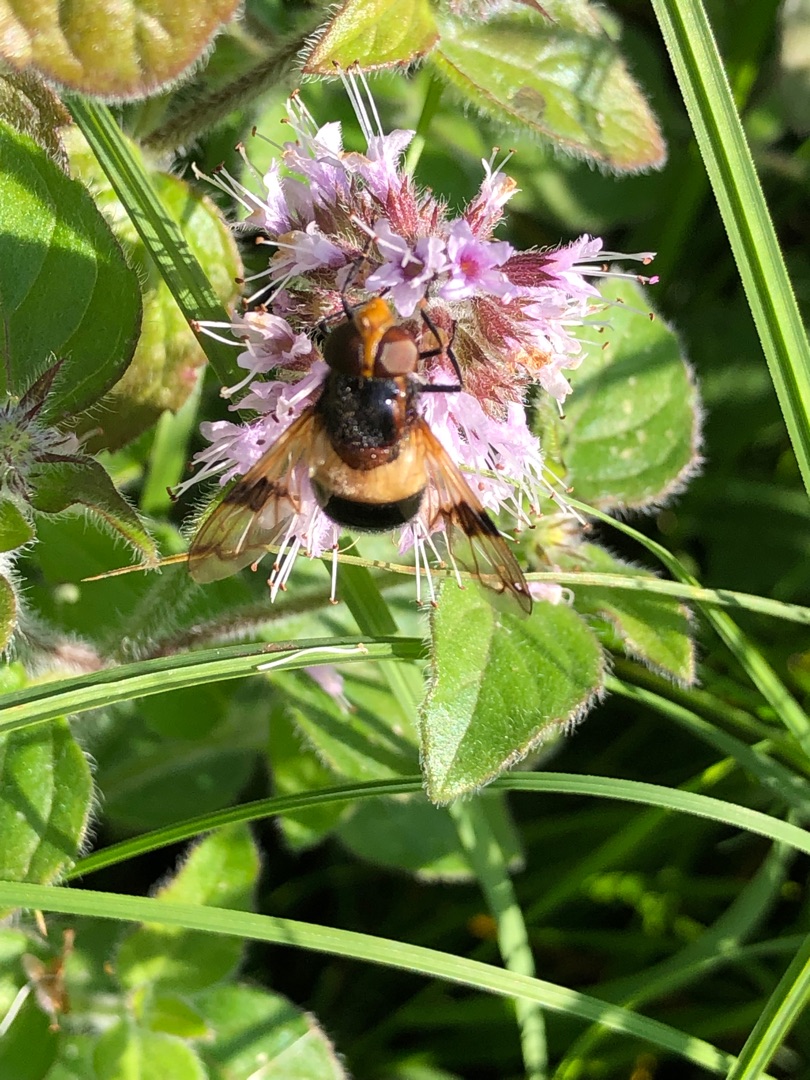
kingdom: Animalia
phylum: Arthropoda
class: Insecta
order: Diptera
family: Syrphidae
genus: Volucella
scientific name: Volucella pellucens
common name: Hvidbåndet humlesvirreflue
